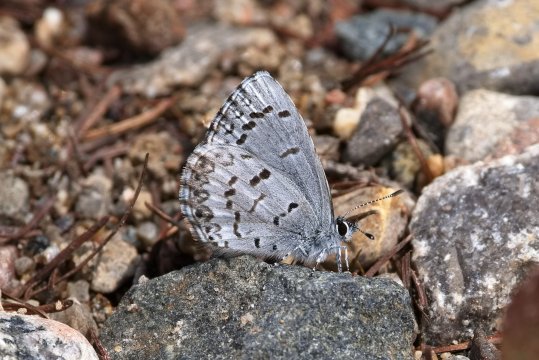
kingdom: Animalia
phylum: Arthropoda
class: Insecta
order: Lepidoptera
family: Lycaenidae
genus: Celastrina
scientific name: Celastrina lucia
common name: Northern Spring Azure
